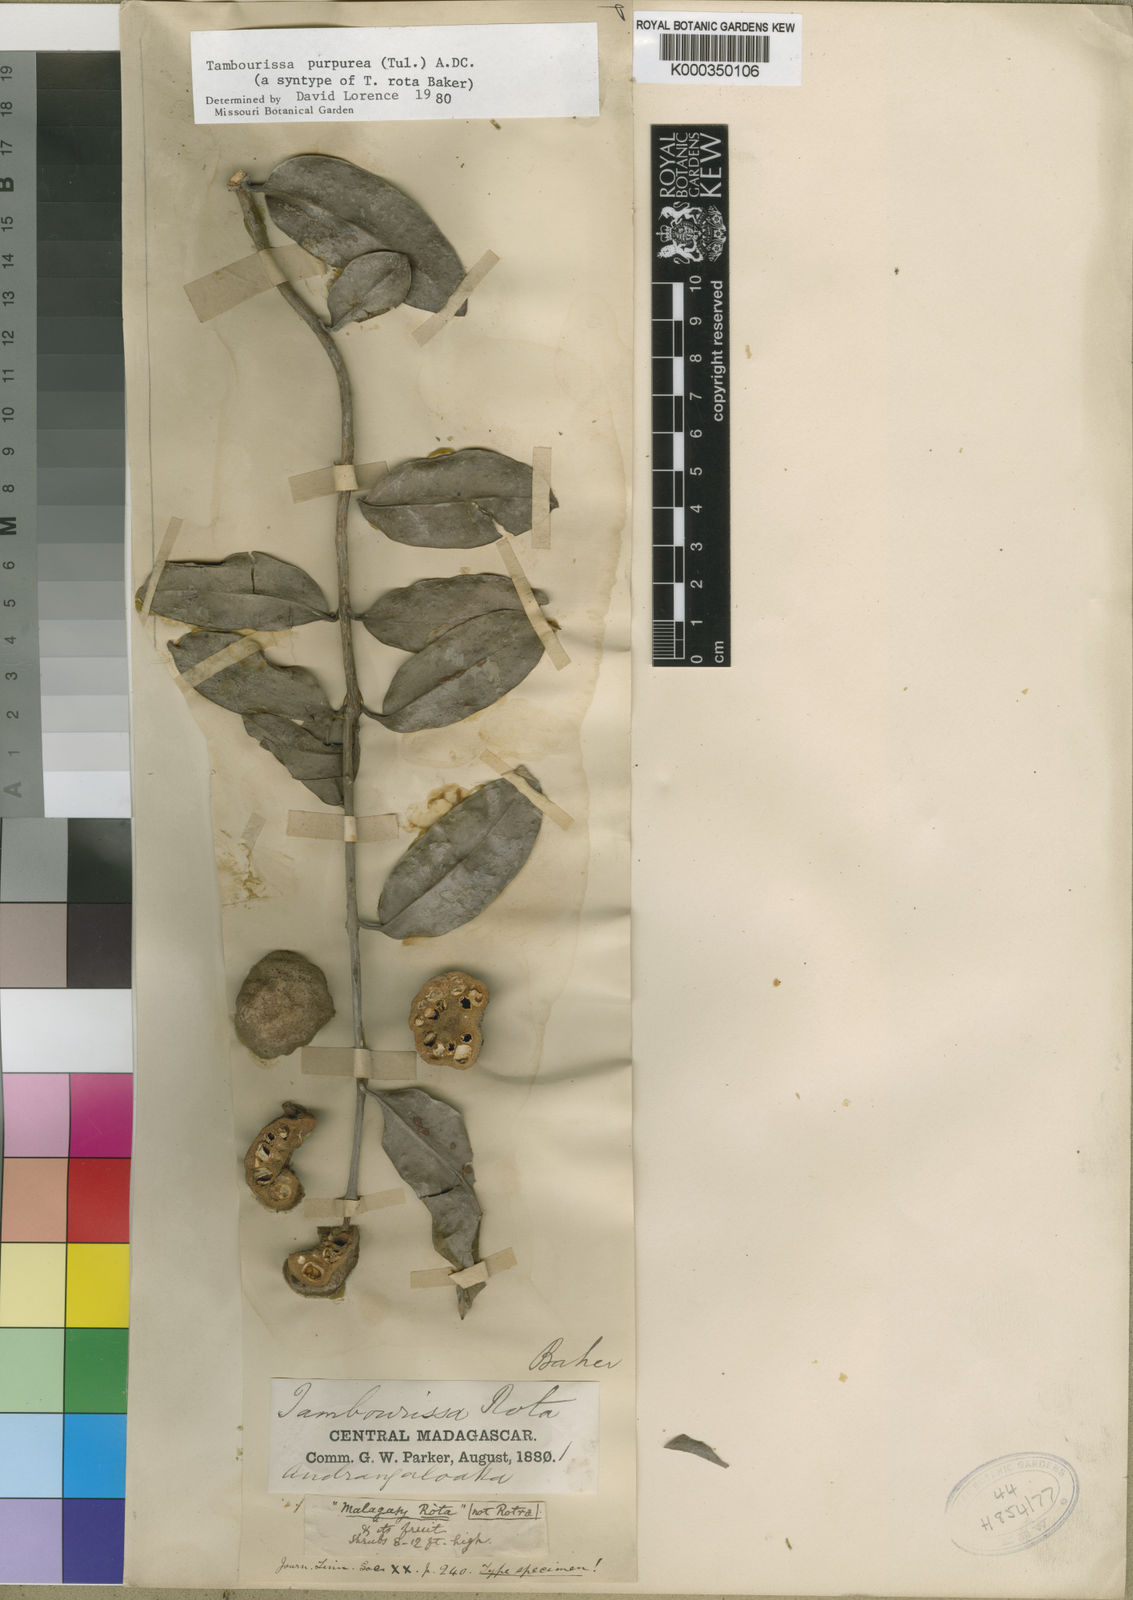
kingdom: Plantae
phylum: Tracheophyta
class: Magnoliopsida
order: Laurales
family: Monimiaceae
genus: Tambourissa
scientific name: Tambourissa purpurea
